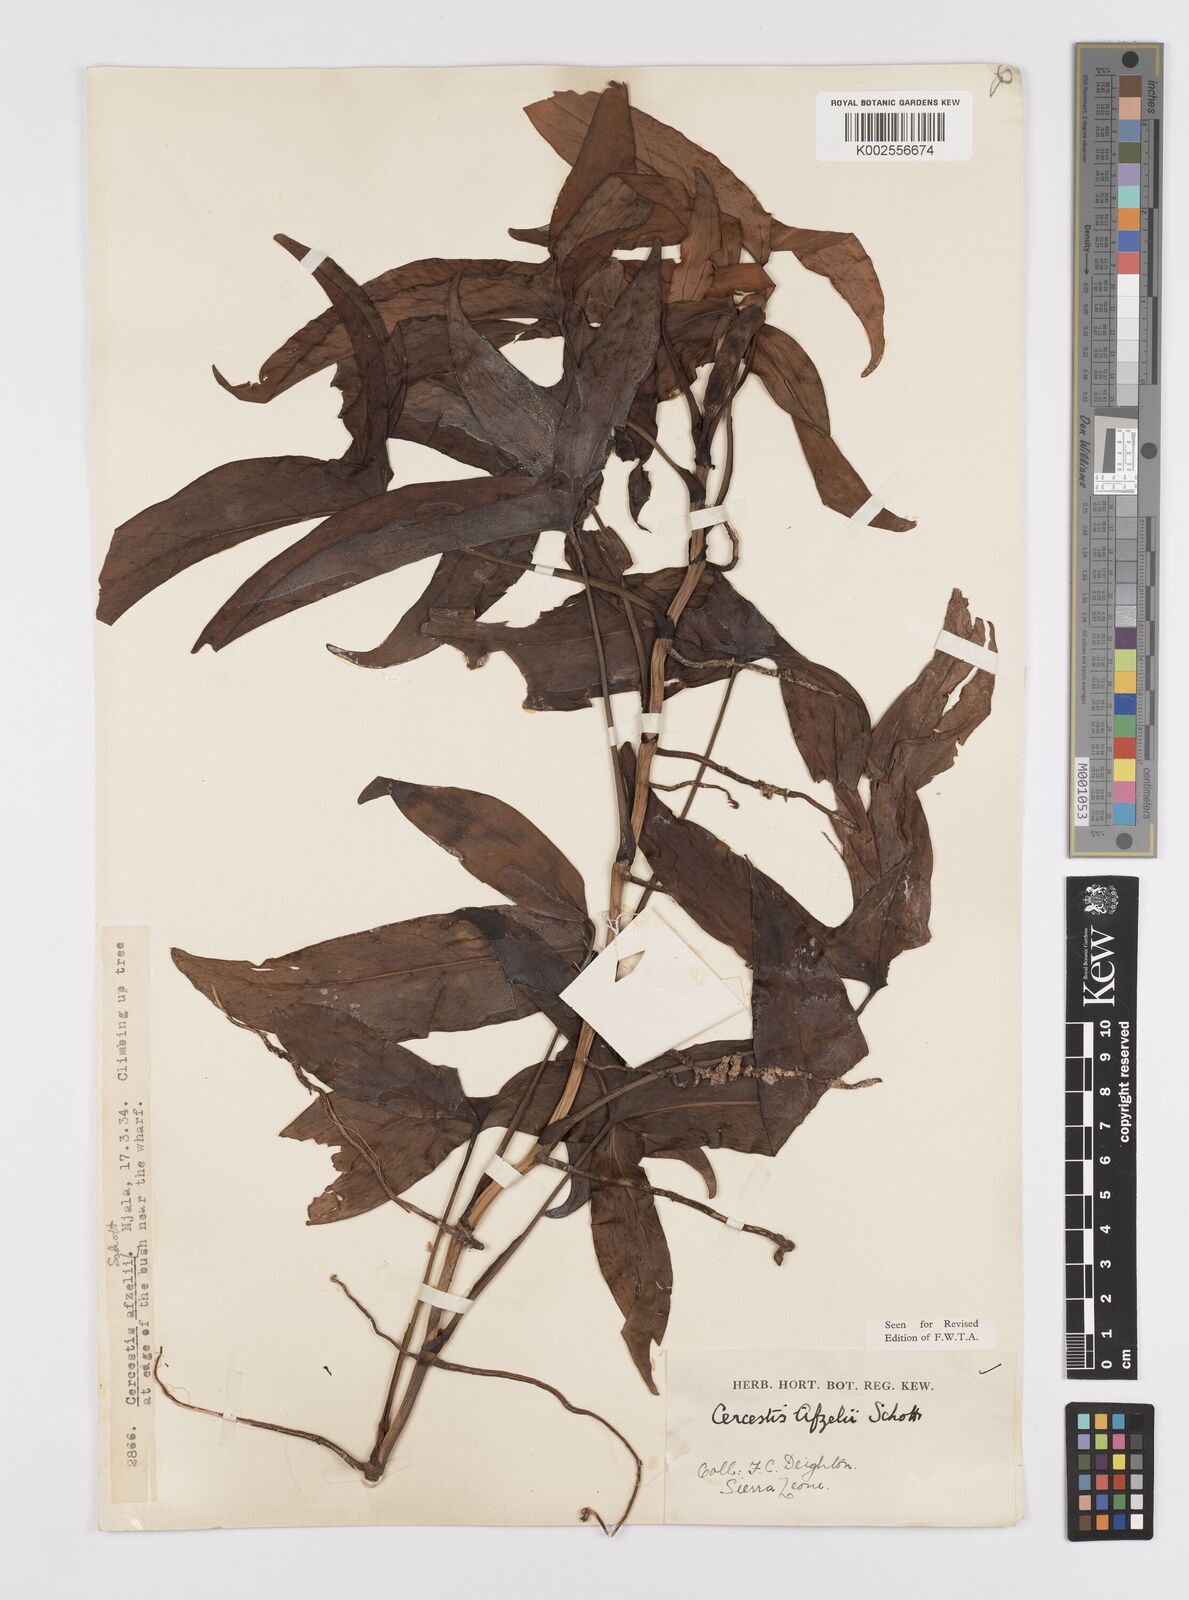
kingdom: Plantae
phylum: Tracheophyta
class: Liliopsida
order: Alismatales
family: Araceae
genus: Cercestis
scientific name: Cercestis afzelii
